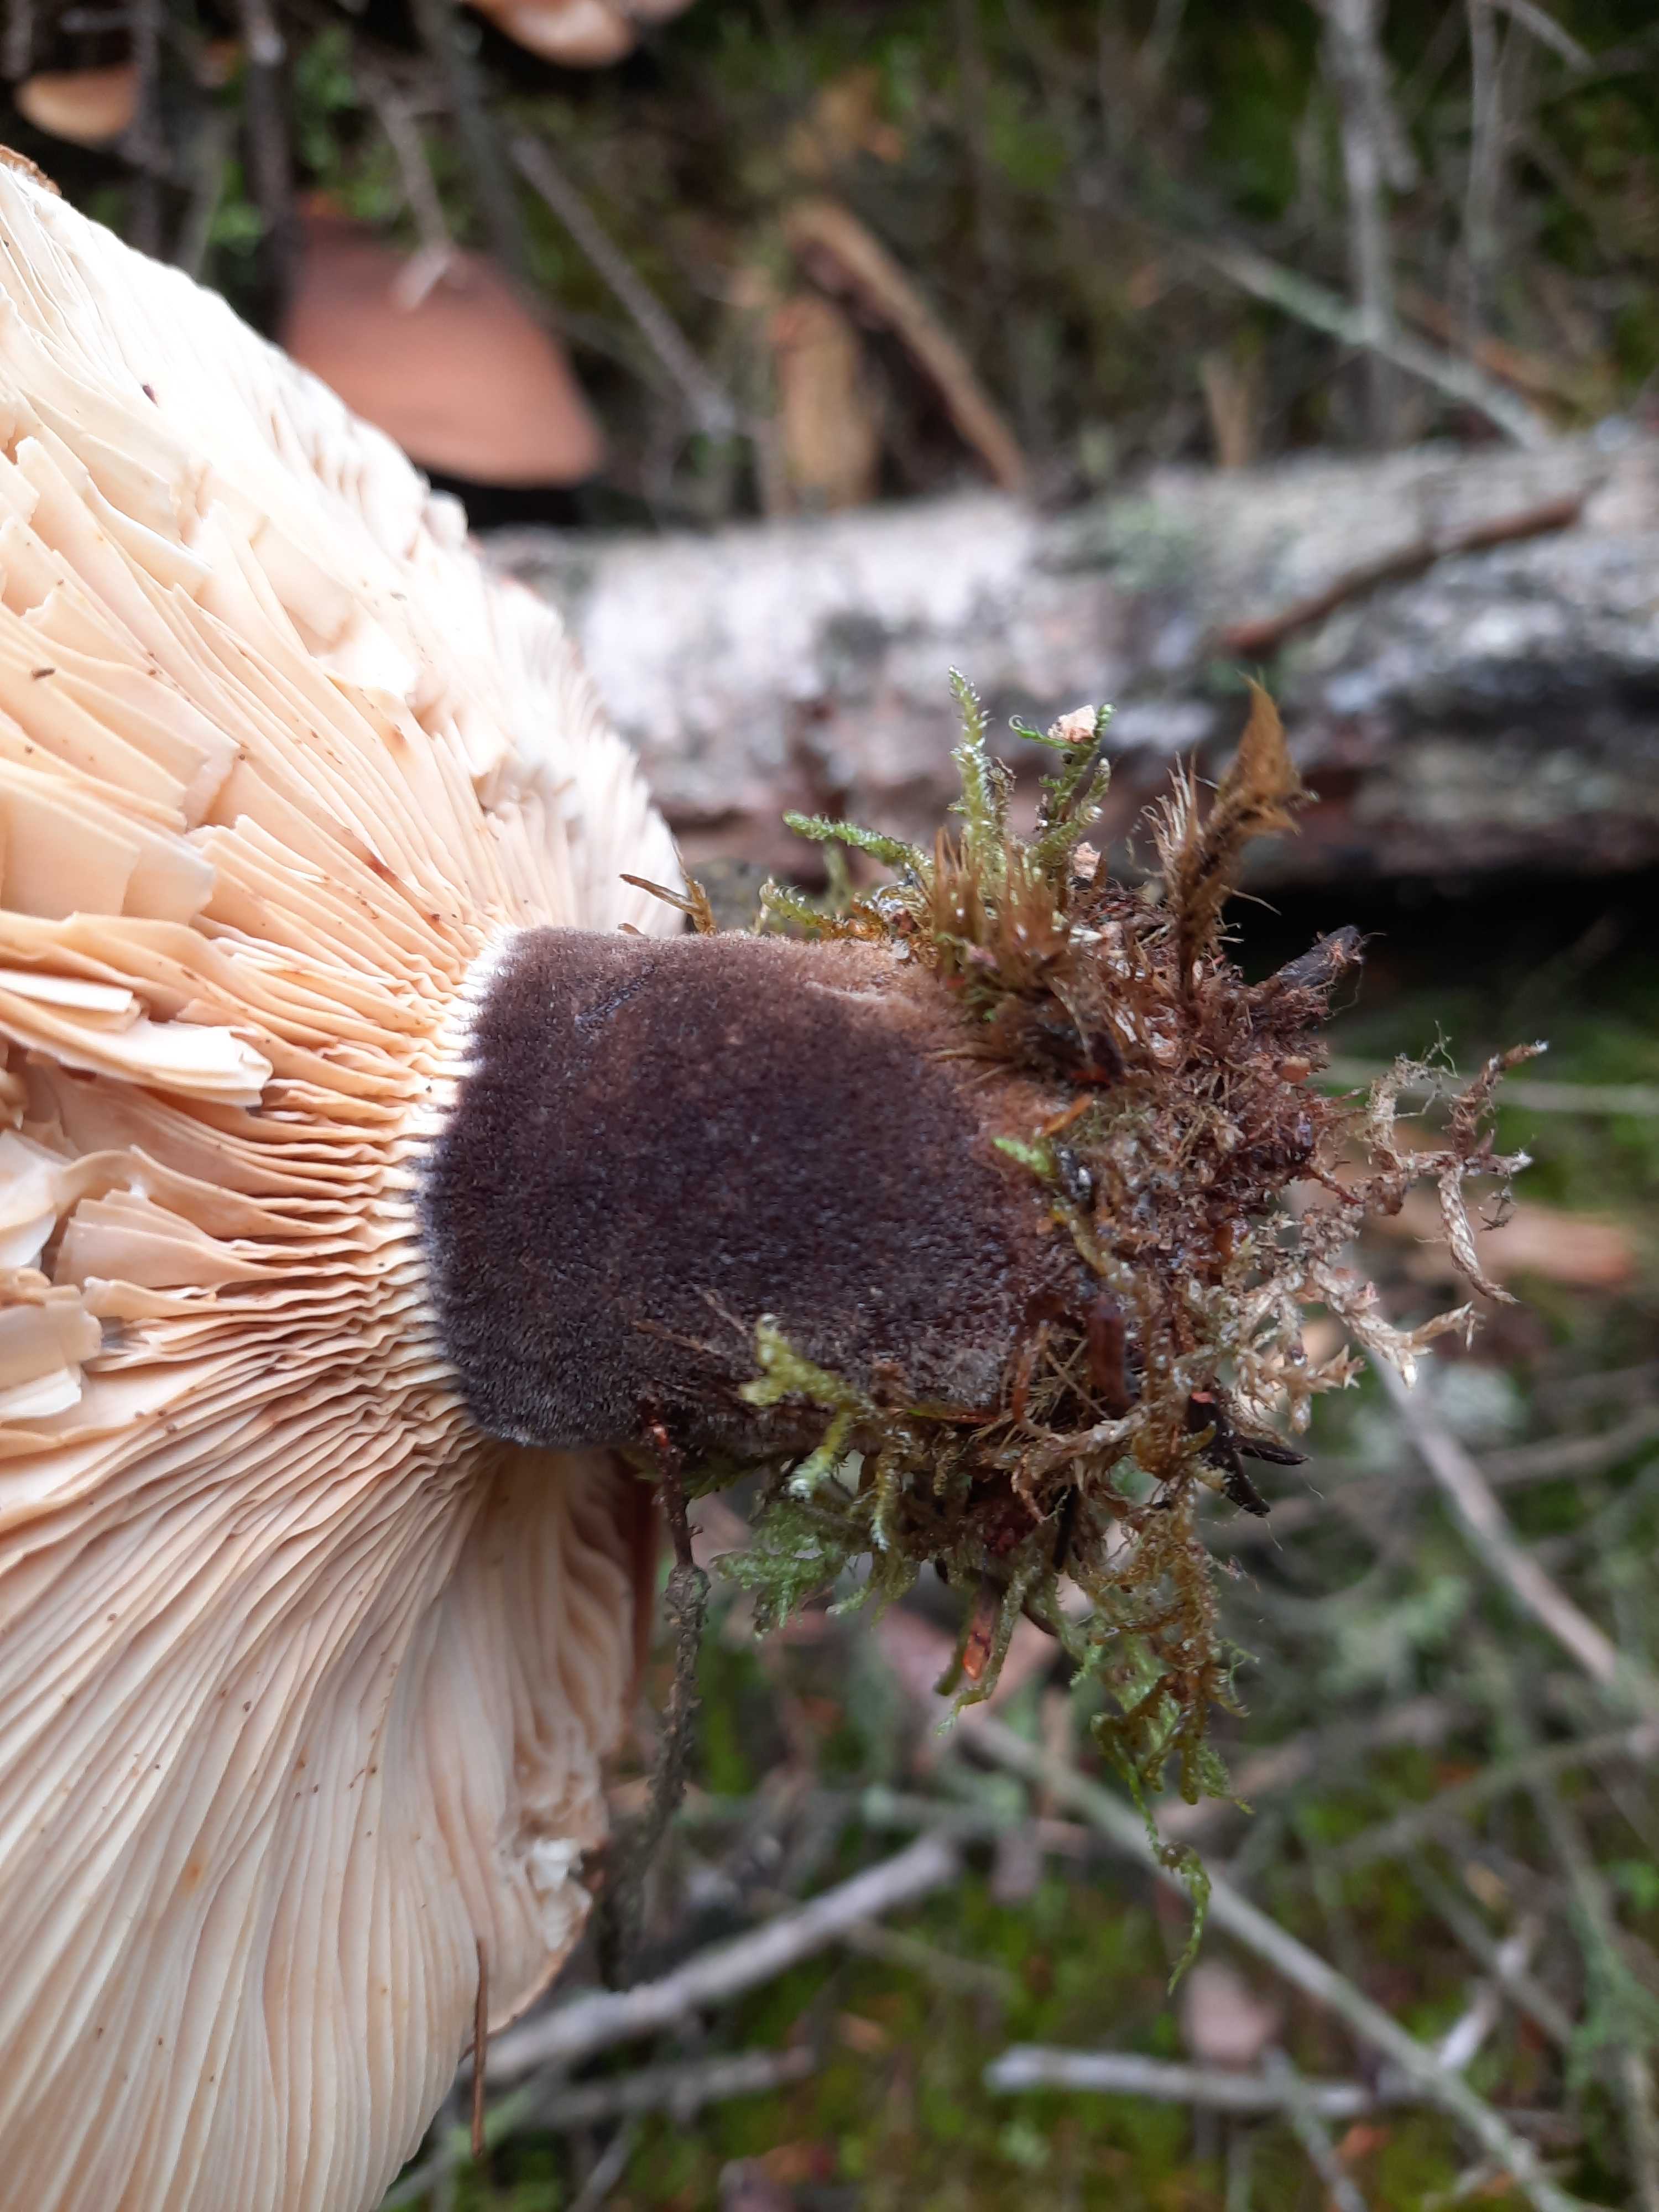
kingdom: Fungi
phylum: Basidiomycota
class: Agaricomycetes
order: Boletales
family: Tapinellaceae
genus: Tapinella
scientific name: Tapinella atrotomentosa
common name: sortfiltet viftesvamp
